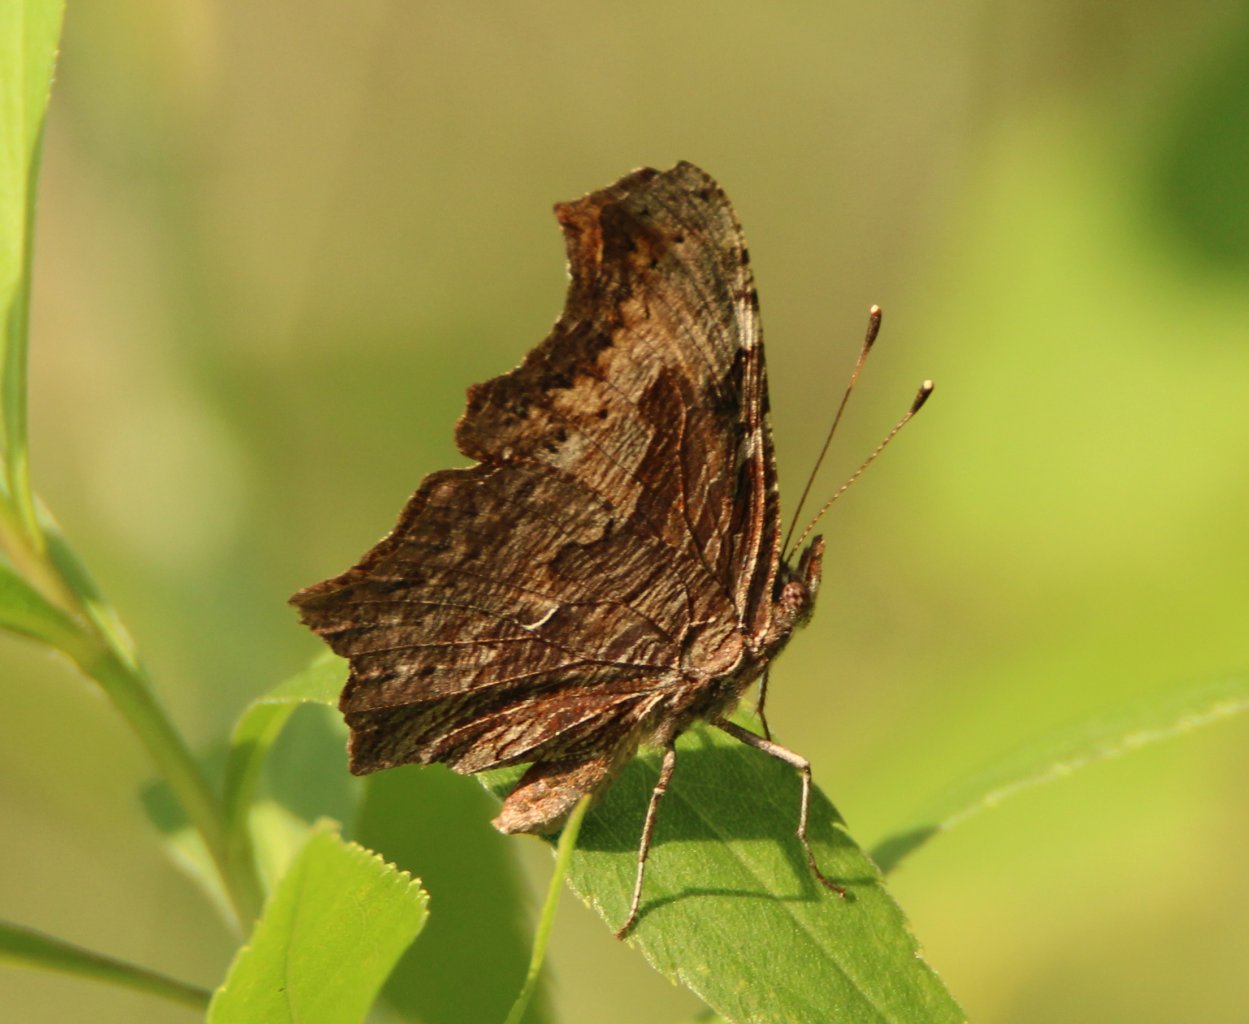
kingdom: Animalia
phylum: Arthropoda
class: Insecta
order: Lepidoptera
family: Nymphalidae
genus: Polygonia
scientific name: Polygonia progne
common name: Gray Comma
